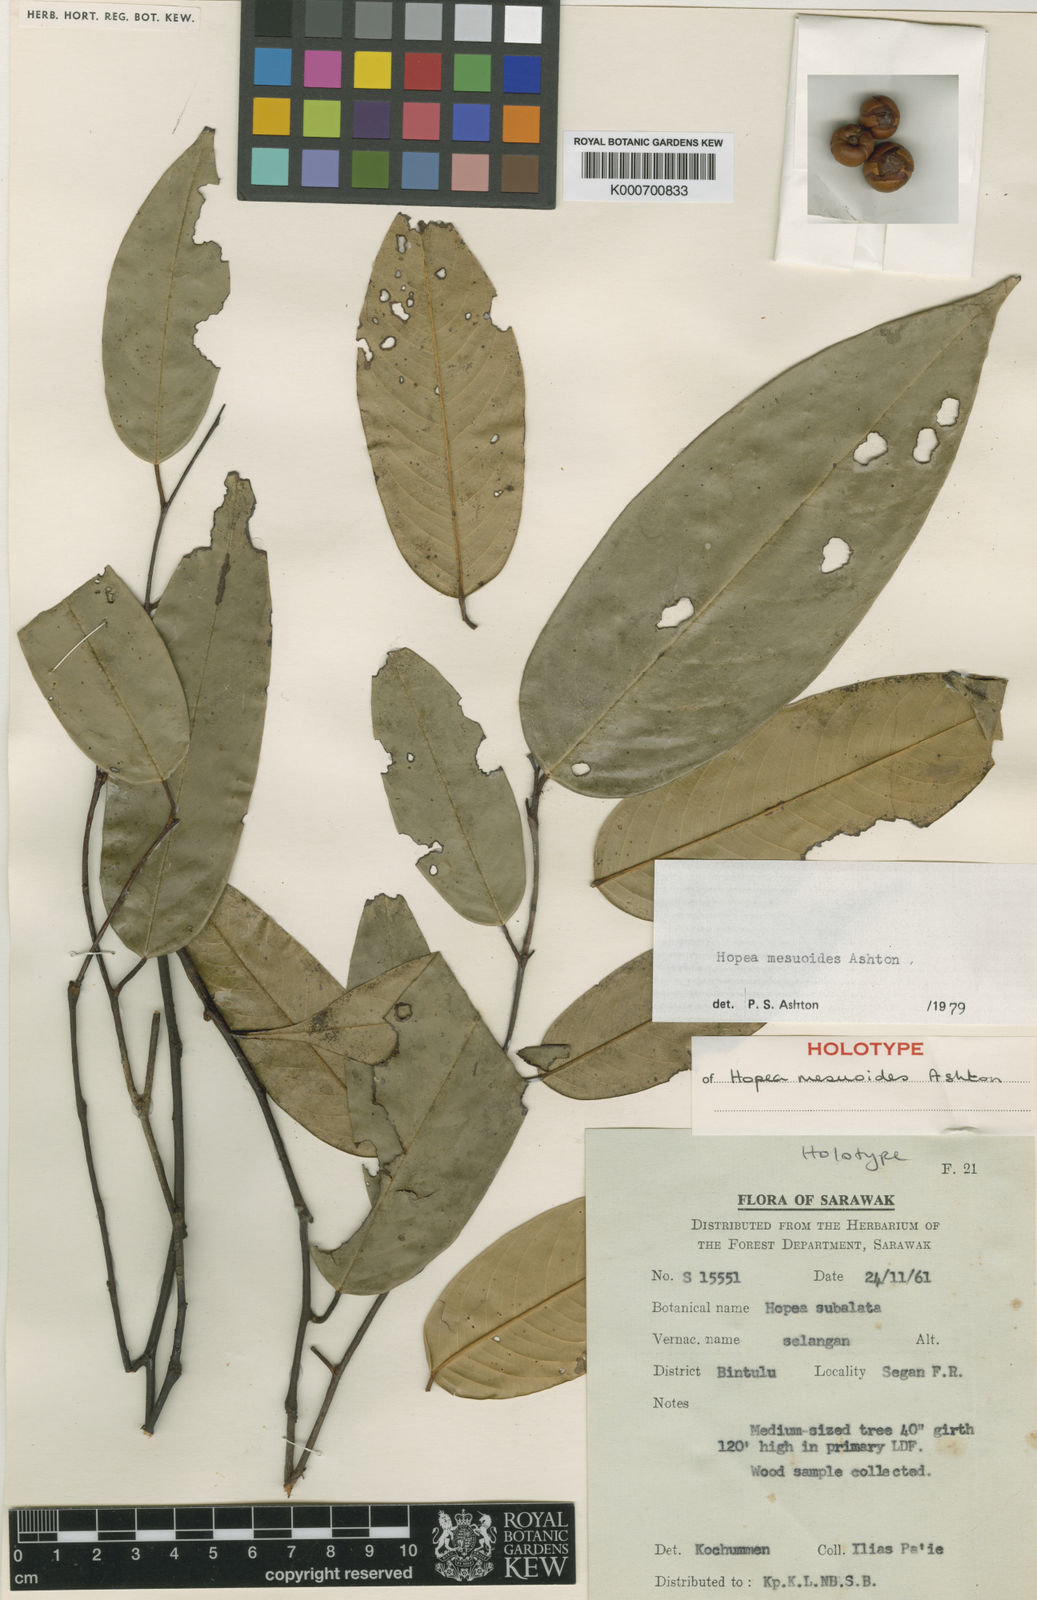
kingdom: Plantae
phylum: Tracheophyta
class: Magnoliopsida
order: Malvales
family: Dipterocarpaceae
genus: Hopea
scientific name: Hopea mesuoides
